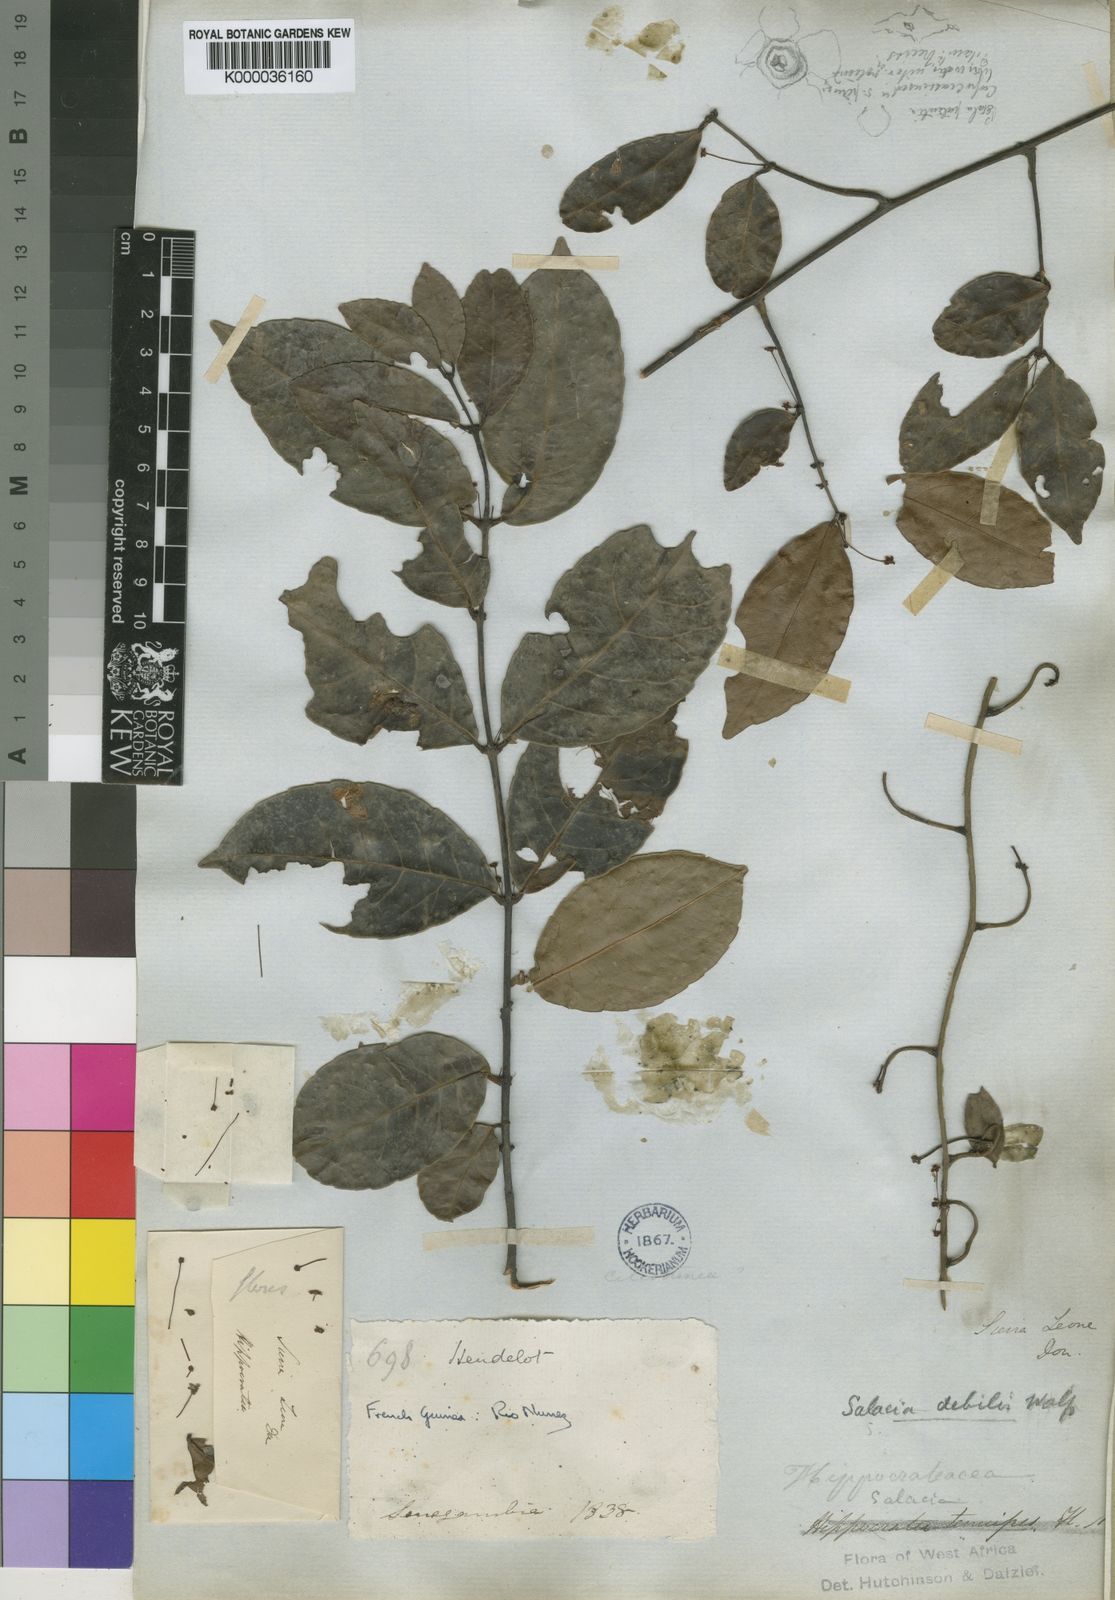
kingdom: Plantae
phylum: Tracheophyta
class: Magnoliopsida
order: Celastrales
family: Celastraceae
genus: Salacia
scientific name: Salacia debilis
